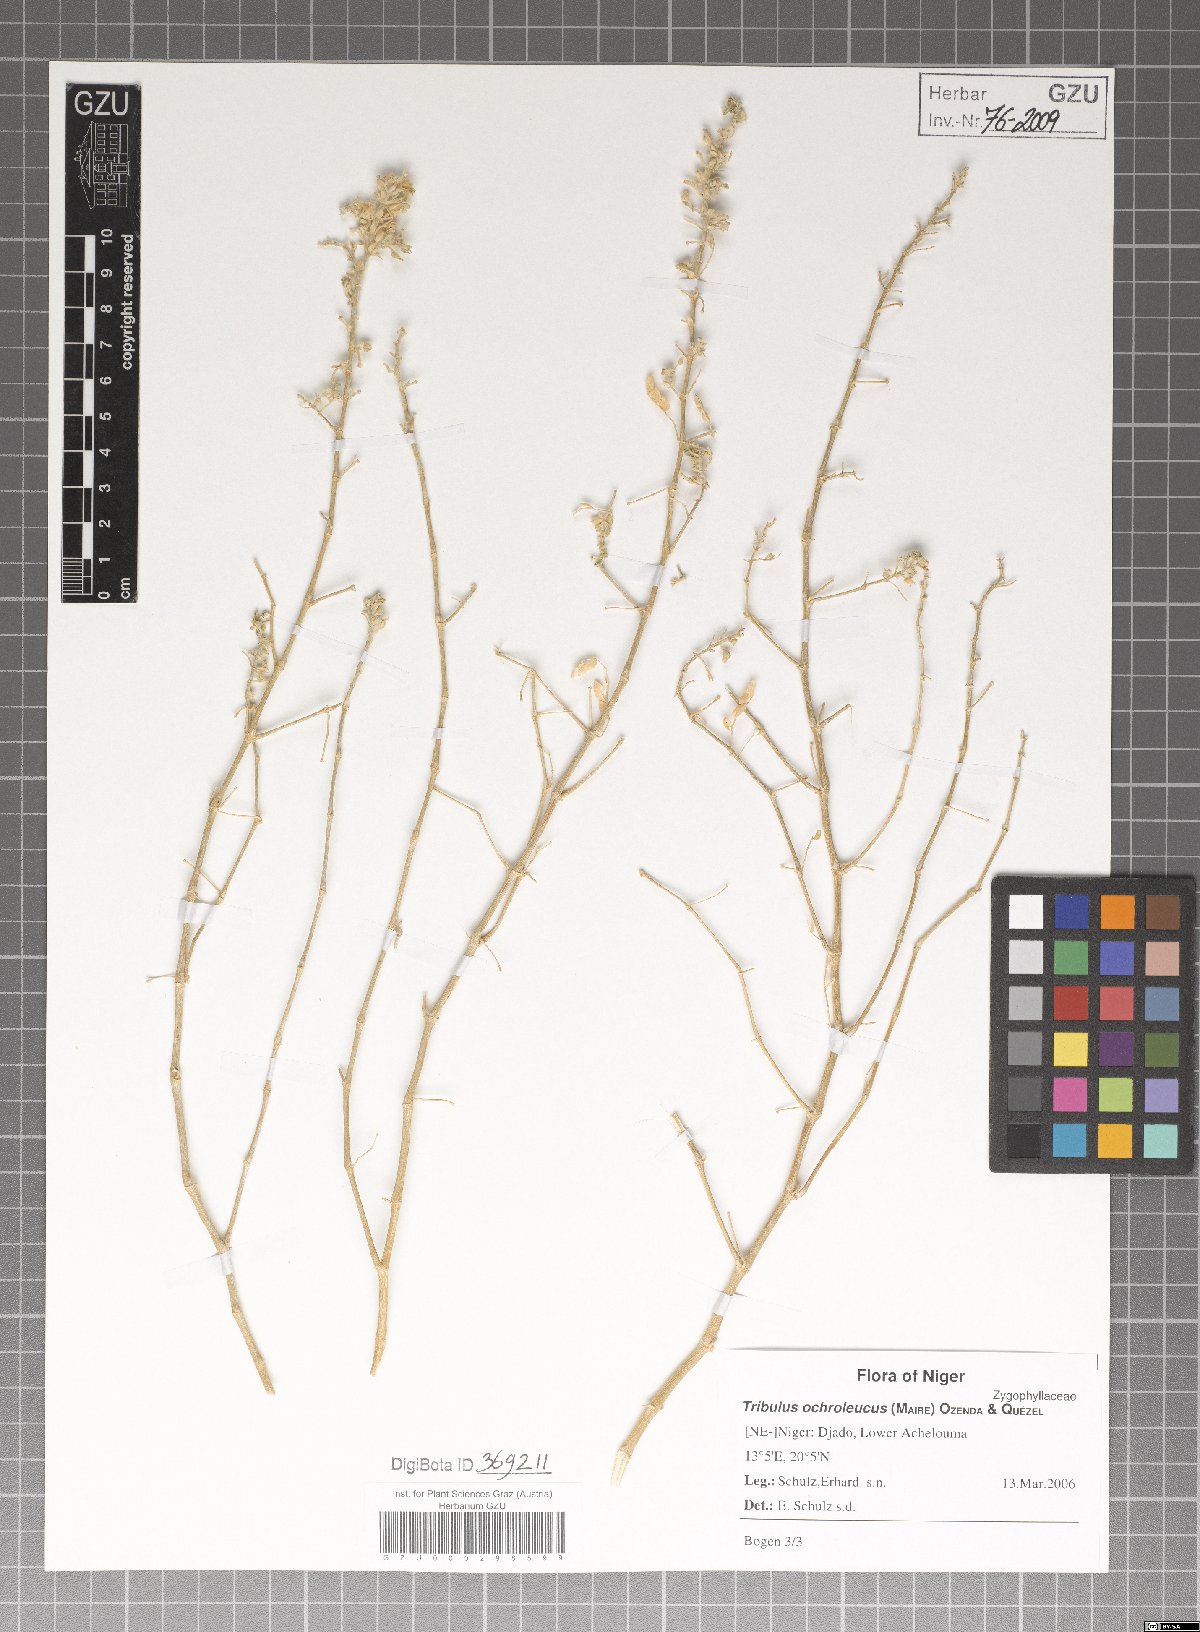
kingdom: Plantae
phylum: Tracheophyta
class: Magnoliopsida
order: Zygophyllales
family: Zygophyllaceae
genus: Tribulus
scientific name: Tribulus ochroleucus
